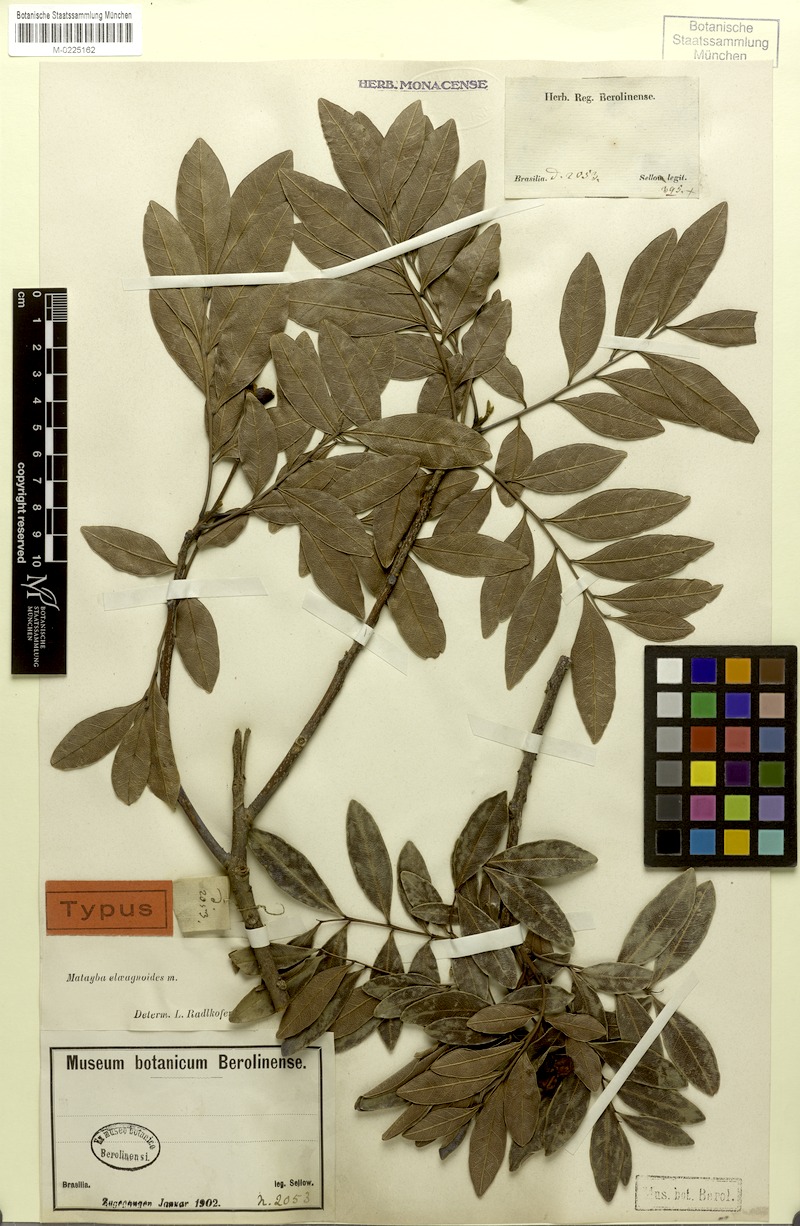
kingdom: Plantae
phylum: Tracheophyta
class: Magnoliopsida
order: Sapindales
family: Sapindaceae
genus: Matayba
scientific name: Matayba elaeagnoides
